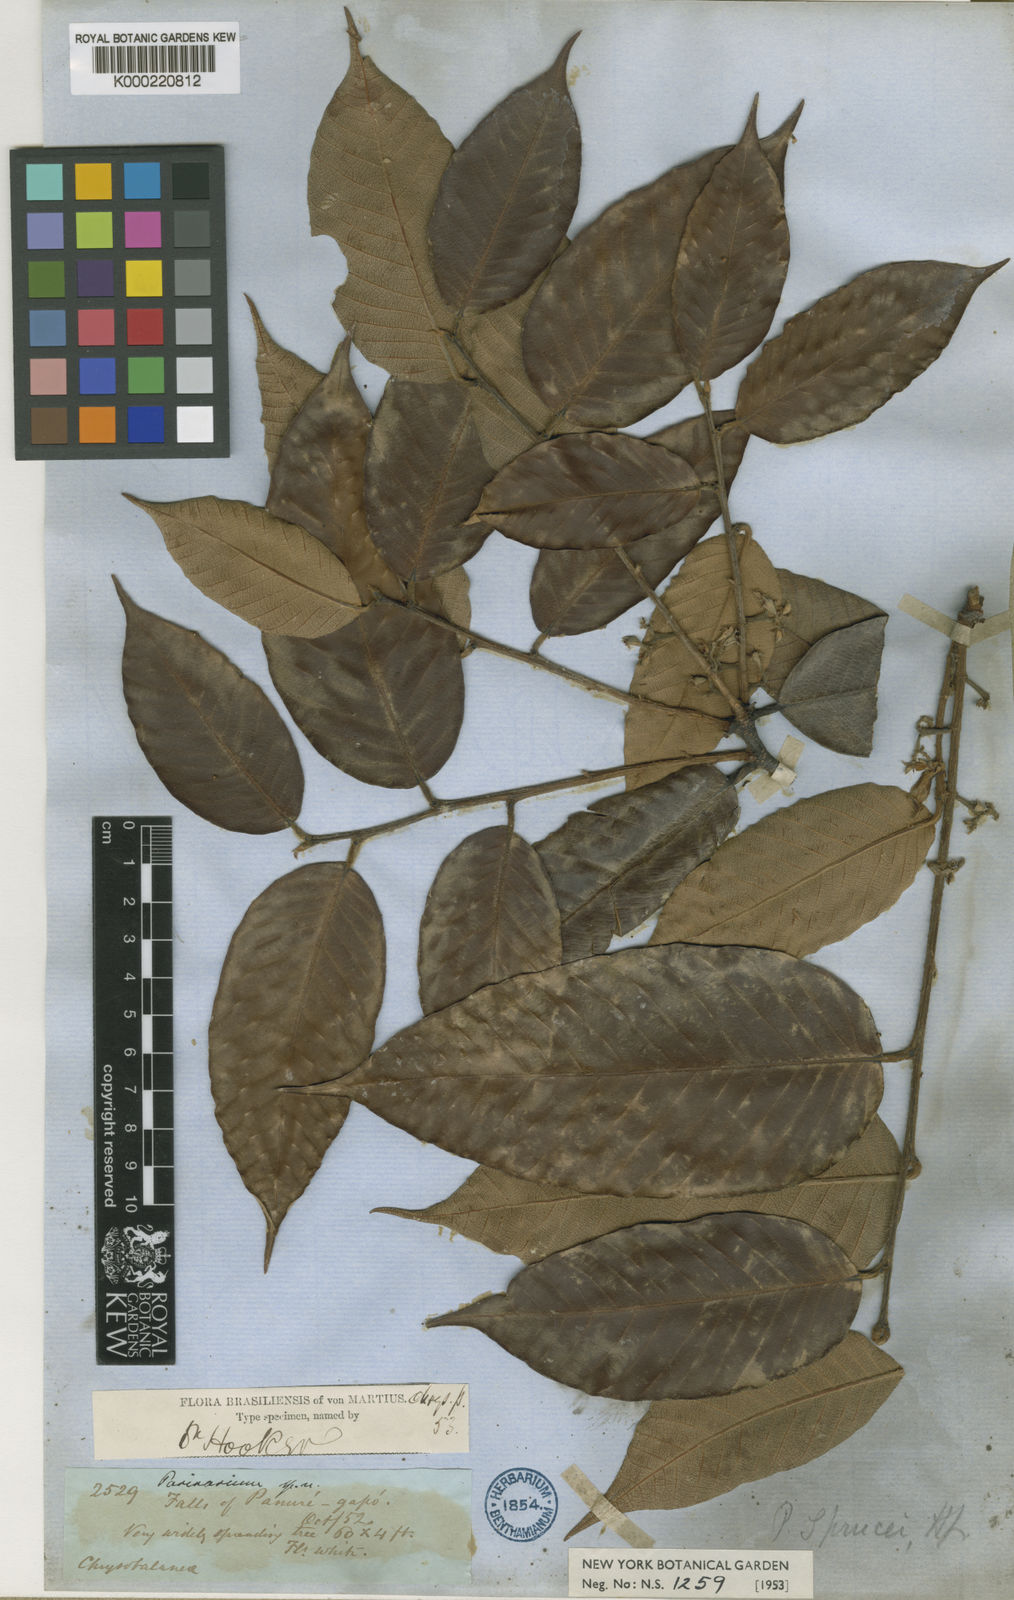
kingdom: Plantae
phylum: Tracheophyta
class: Magnoliopsida
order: Malpighiales
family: Chrysobalanaceae
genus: Parinari
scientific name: Parinari sprucei
